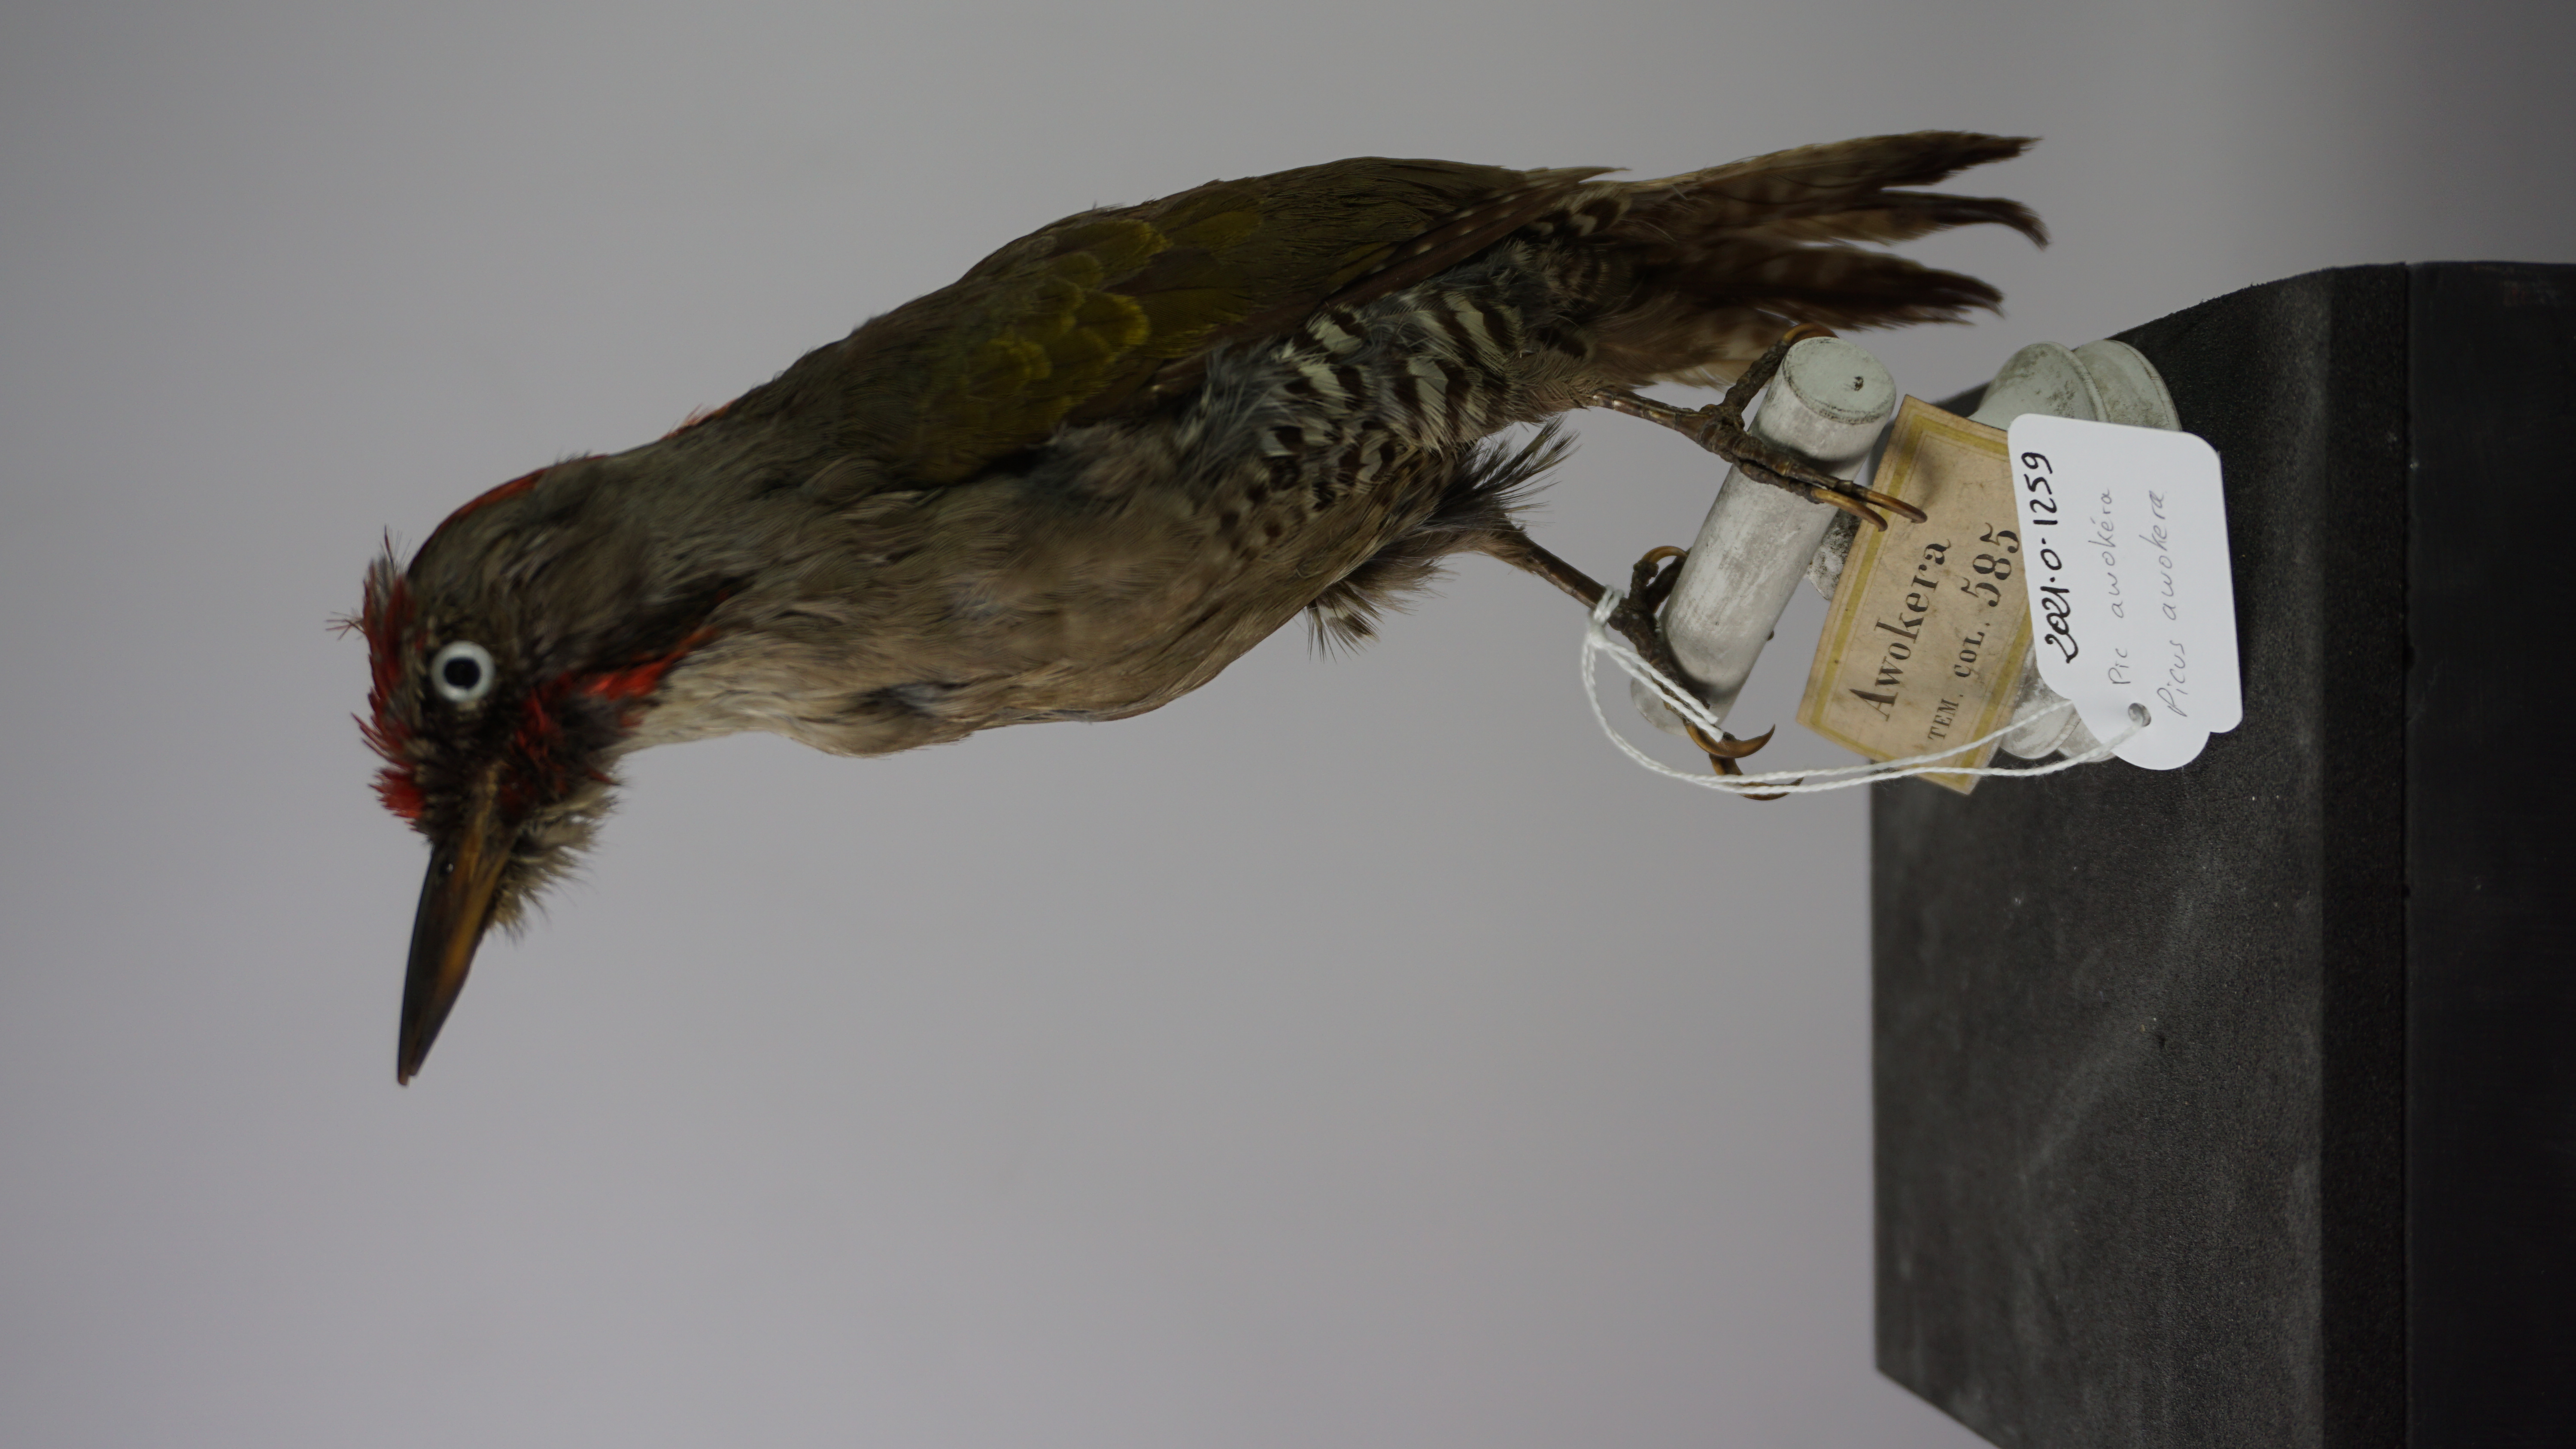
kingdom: Animalia
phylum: Chordata
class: Aves
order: Piciformes
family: Picidae
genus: Picus
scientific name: Picus awokera
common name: Japanese green woodpecker
